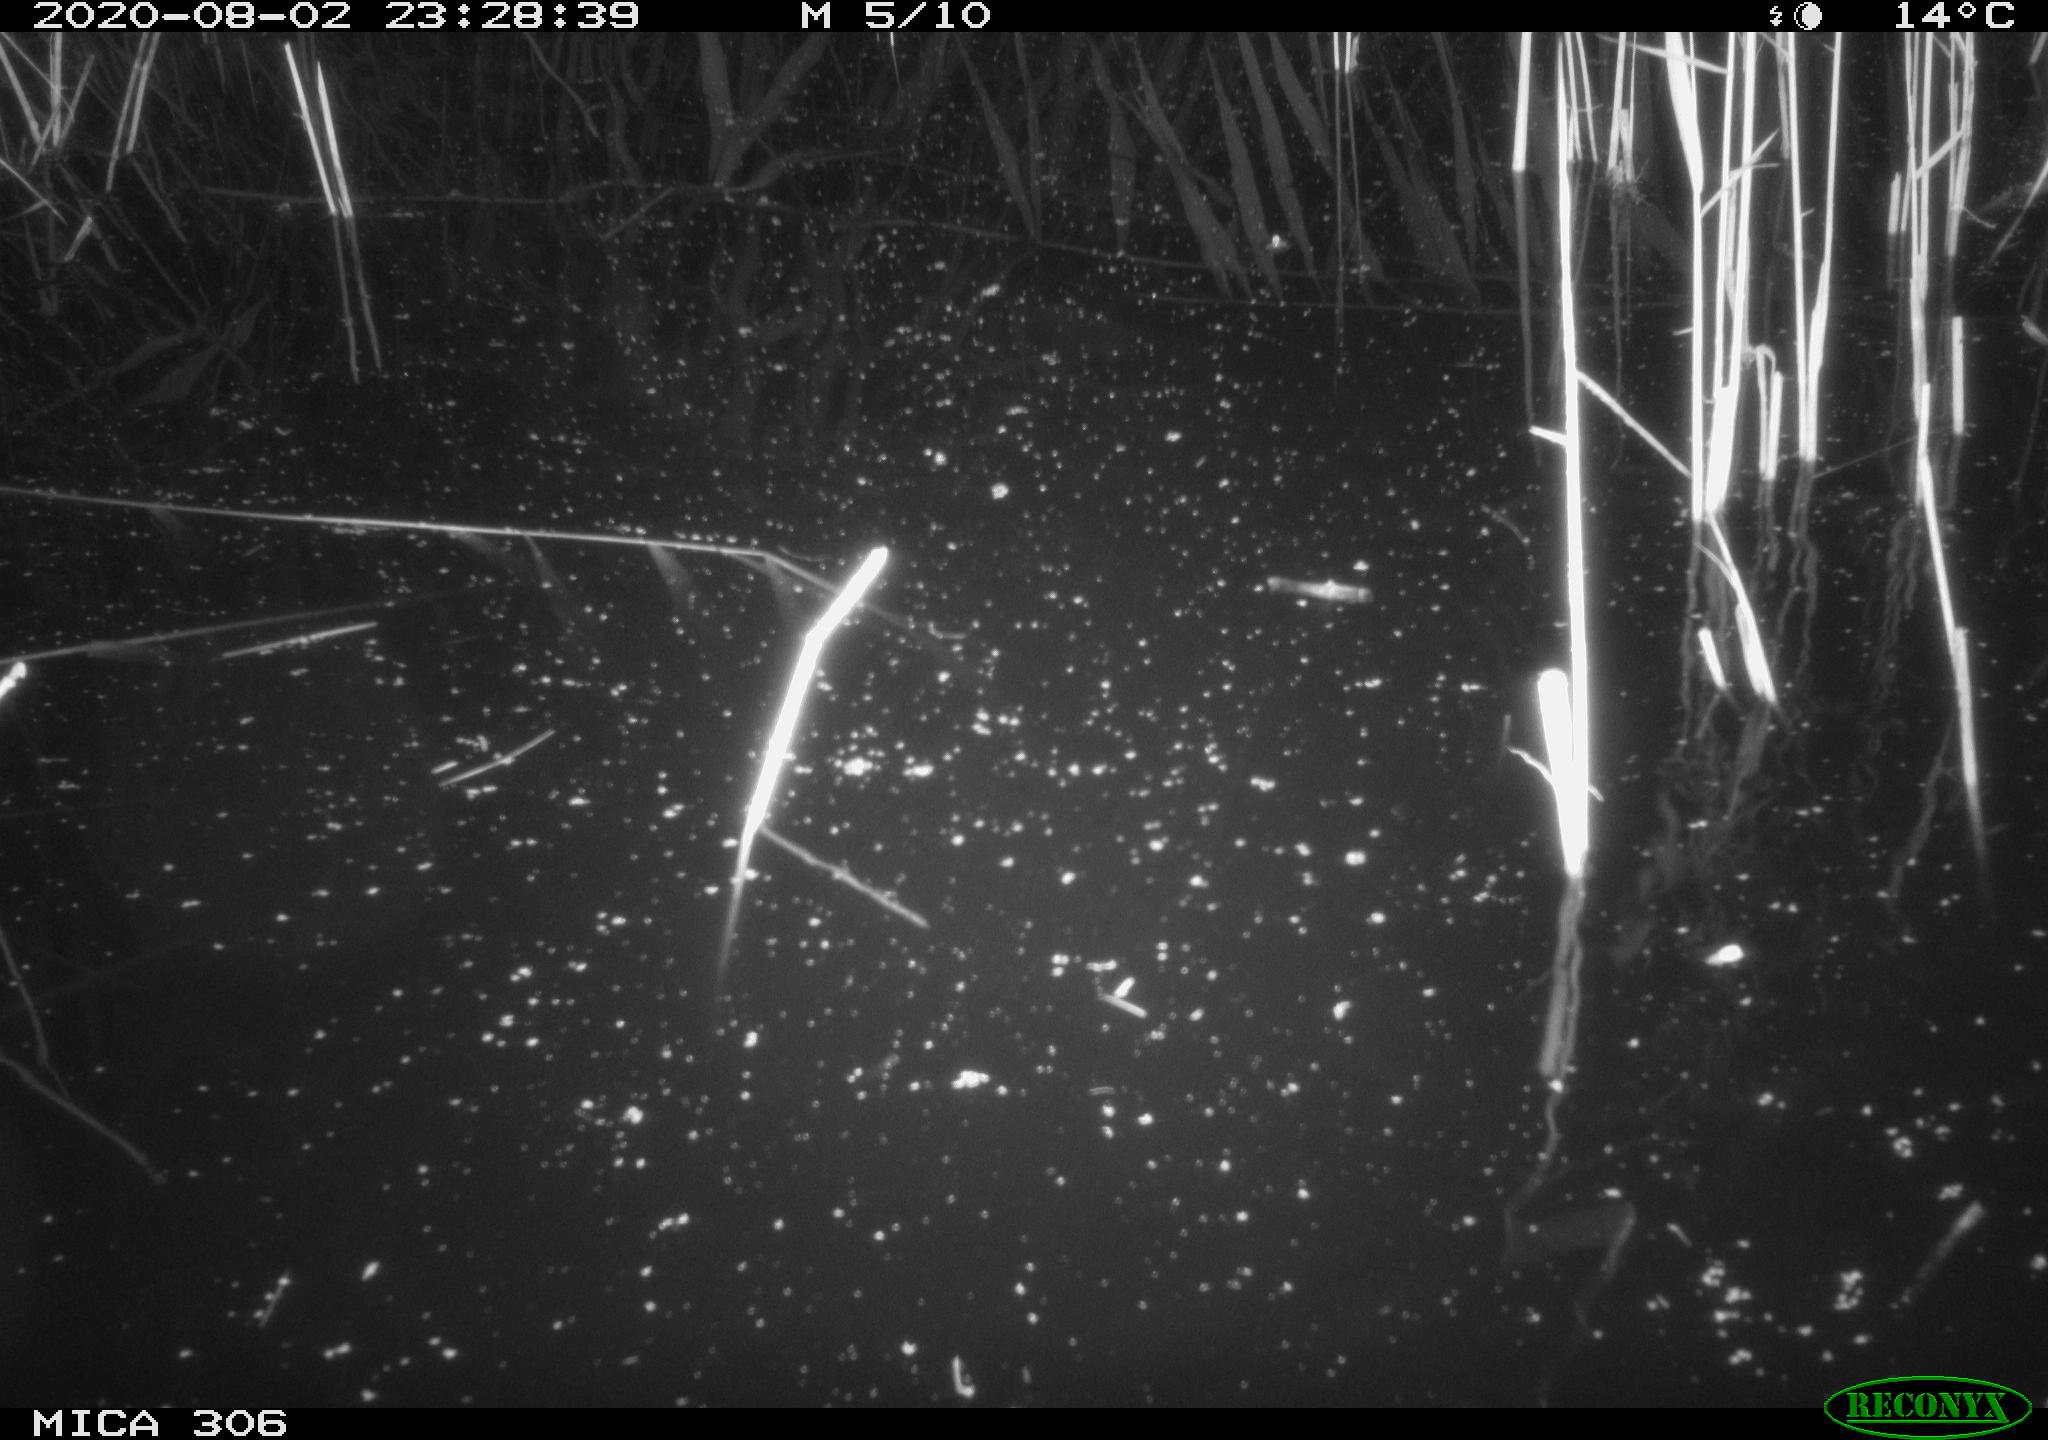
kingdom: Animalia
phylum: Chordata
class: Mammalia
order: Rodentia
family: Muridae
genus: Rattus
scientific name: Rattus norvegicus
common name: Brown rat
